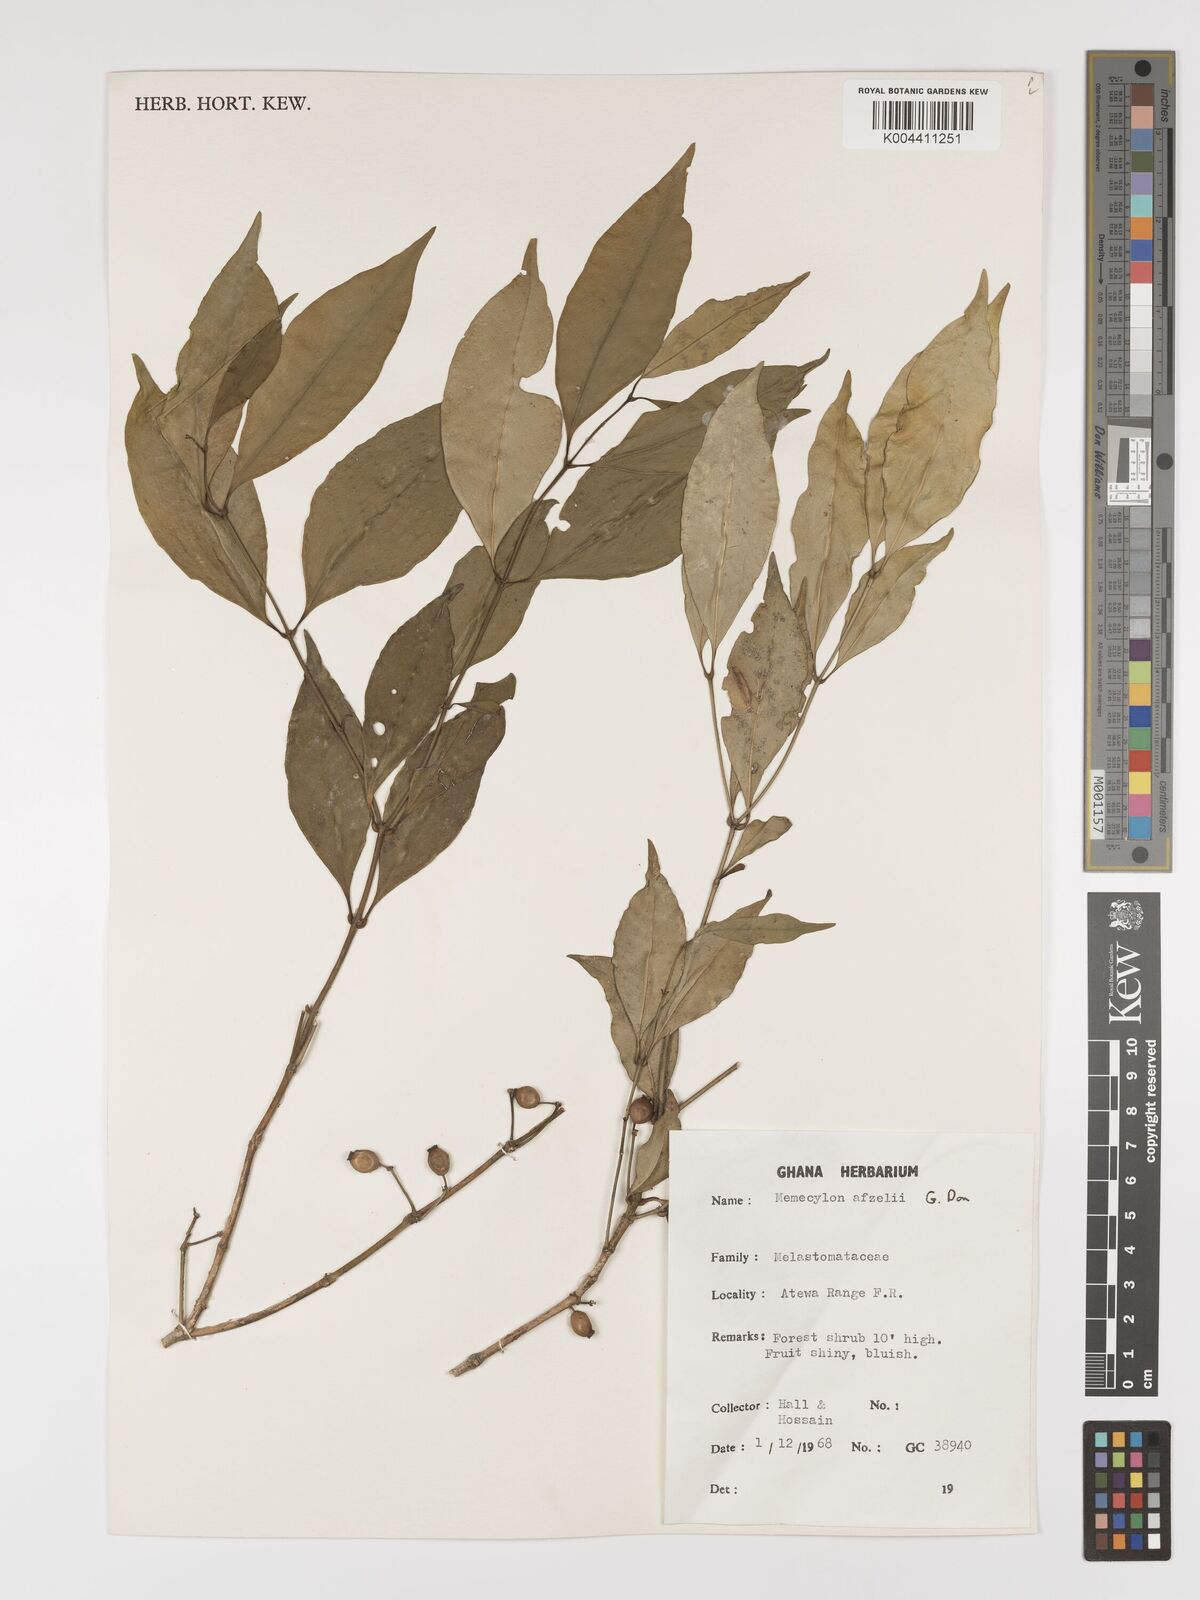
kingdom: Plantae
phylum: Tracheophyta
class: Magnoliopsida
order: Myrtales
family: Melastomataceae
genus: Memecylon
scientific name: Memecylon afzelii
